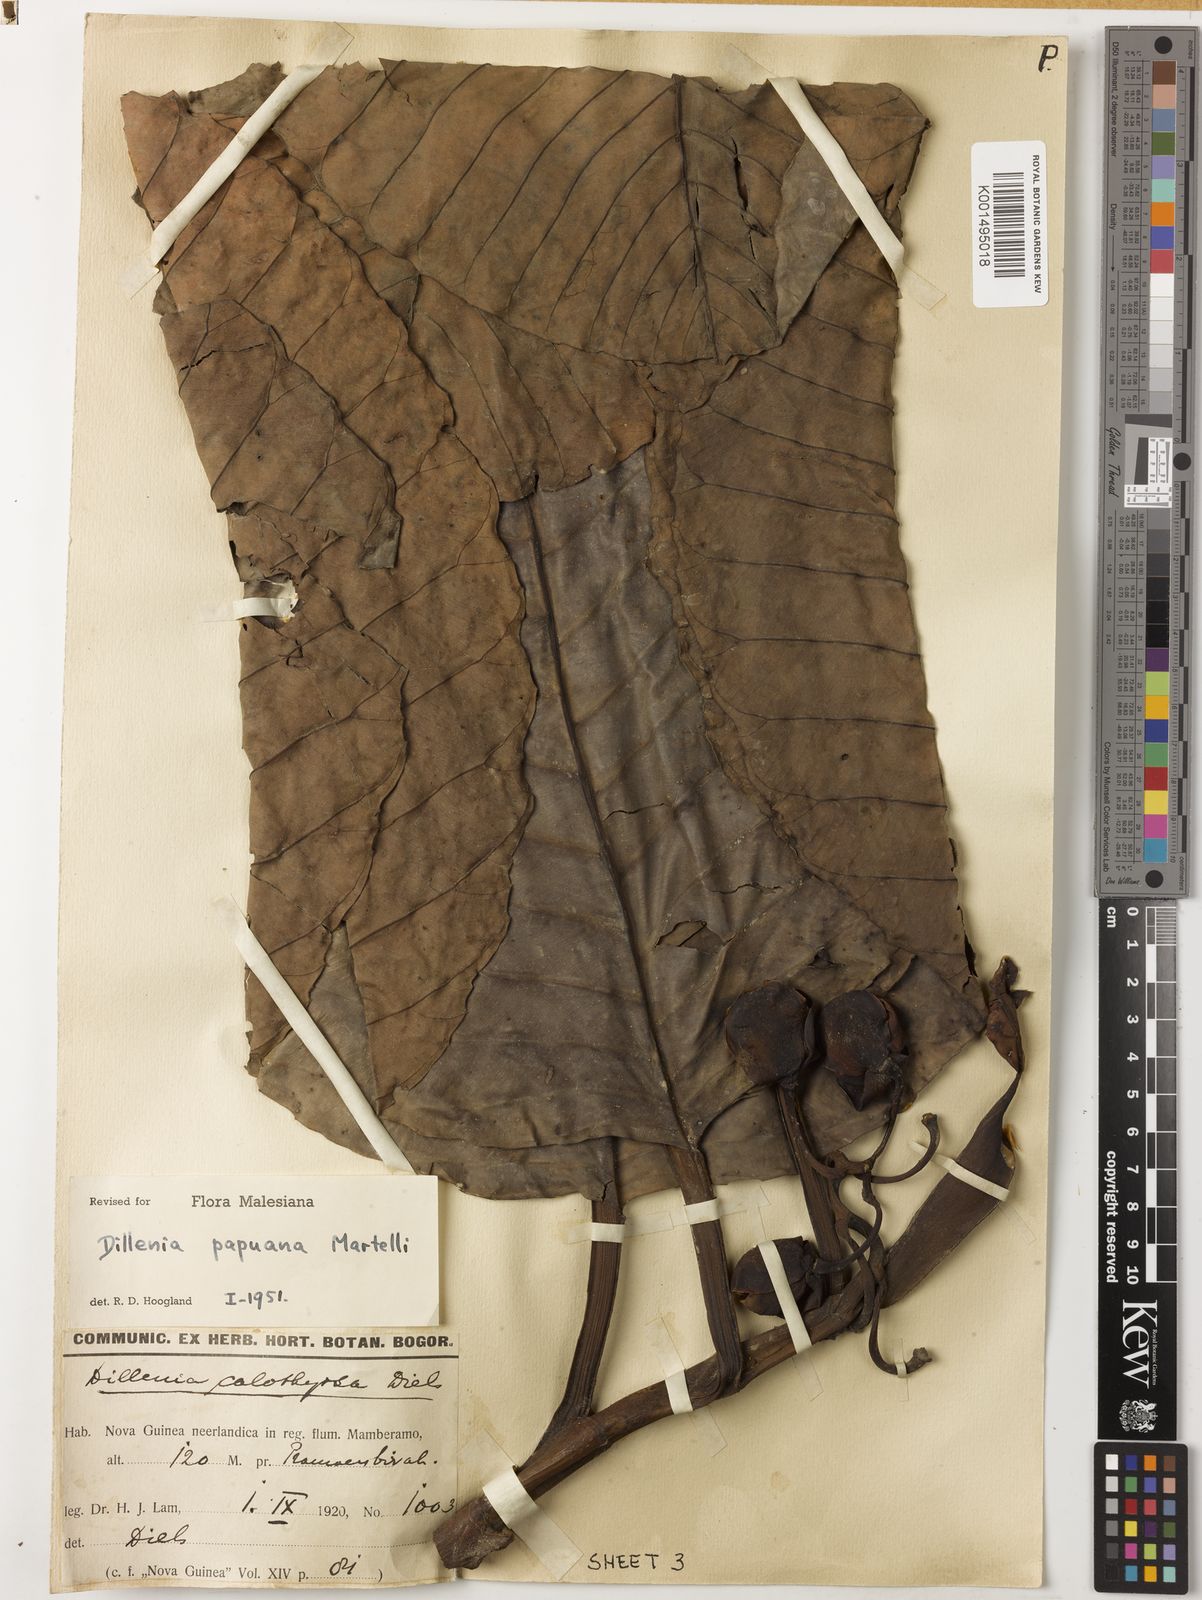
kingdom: Plantae
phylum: Tracheophyta
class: Magnoliopsida
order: Dilleniales
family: Dilleniaceae
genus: Dillenia
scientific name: Dillenia papuana
